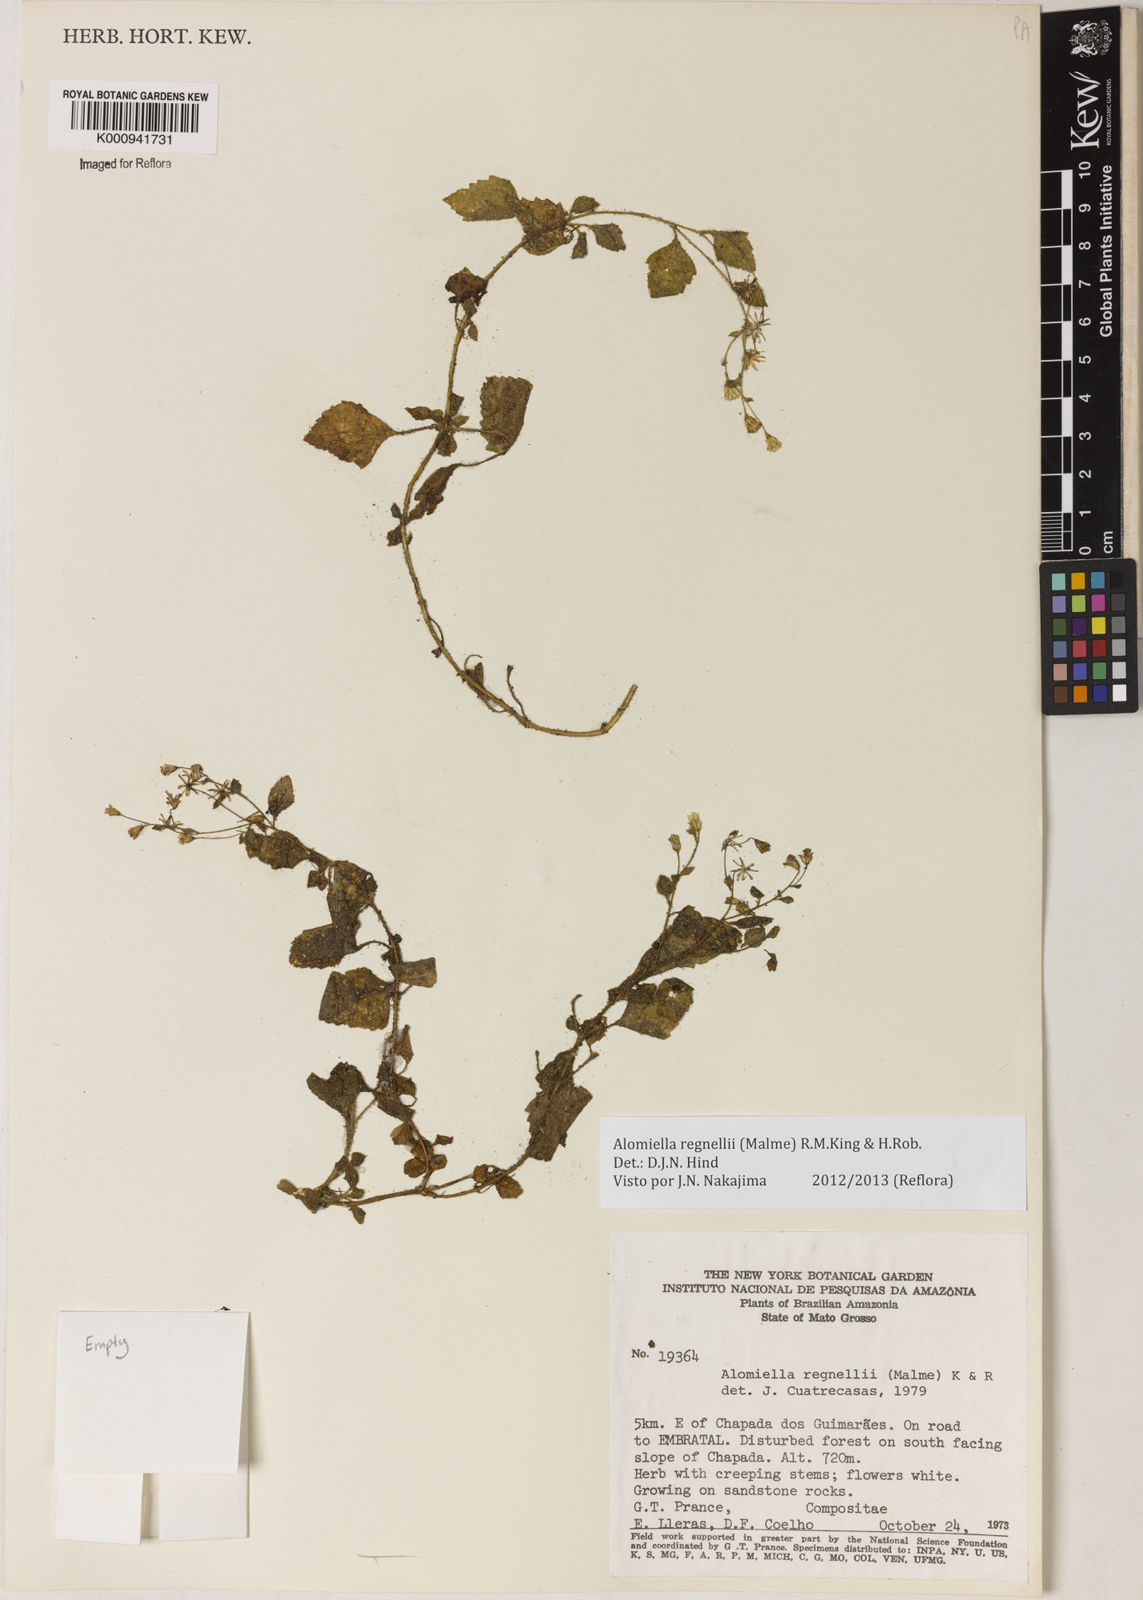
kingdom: Plantae
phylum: Tracheophyta
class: Magnoliopsida
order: Asterales
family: Asteraceae
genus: Alomiella
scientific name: Alomiella regnellii
